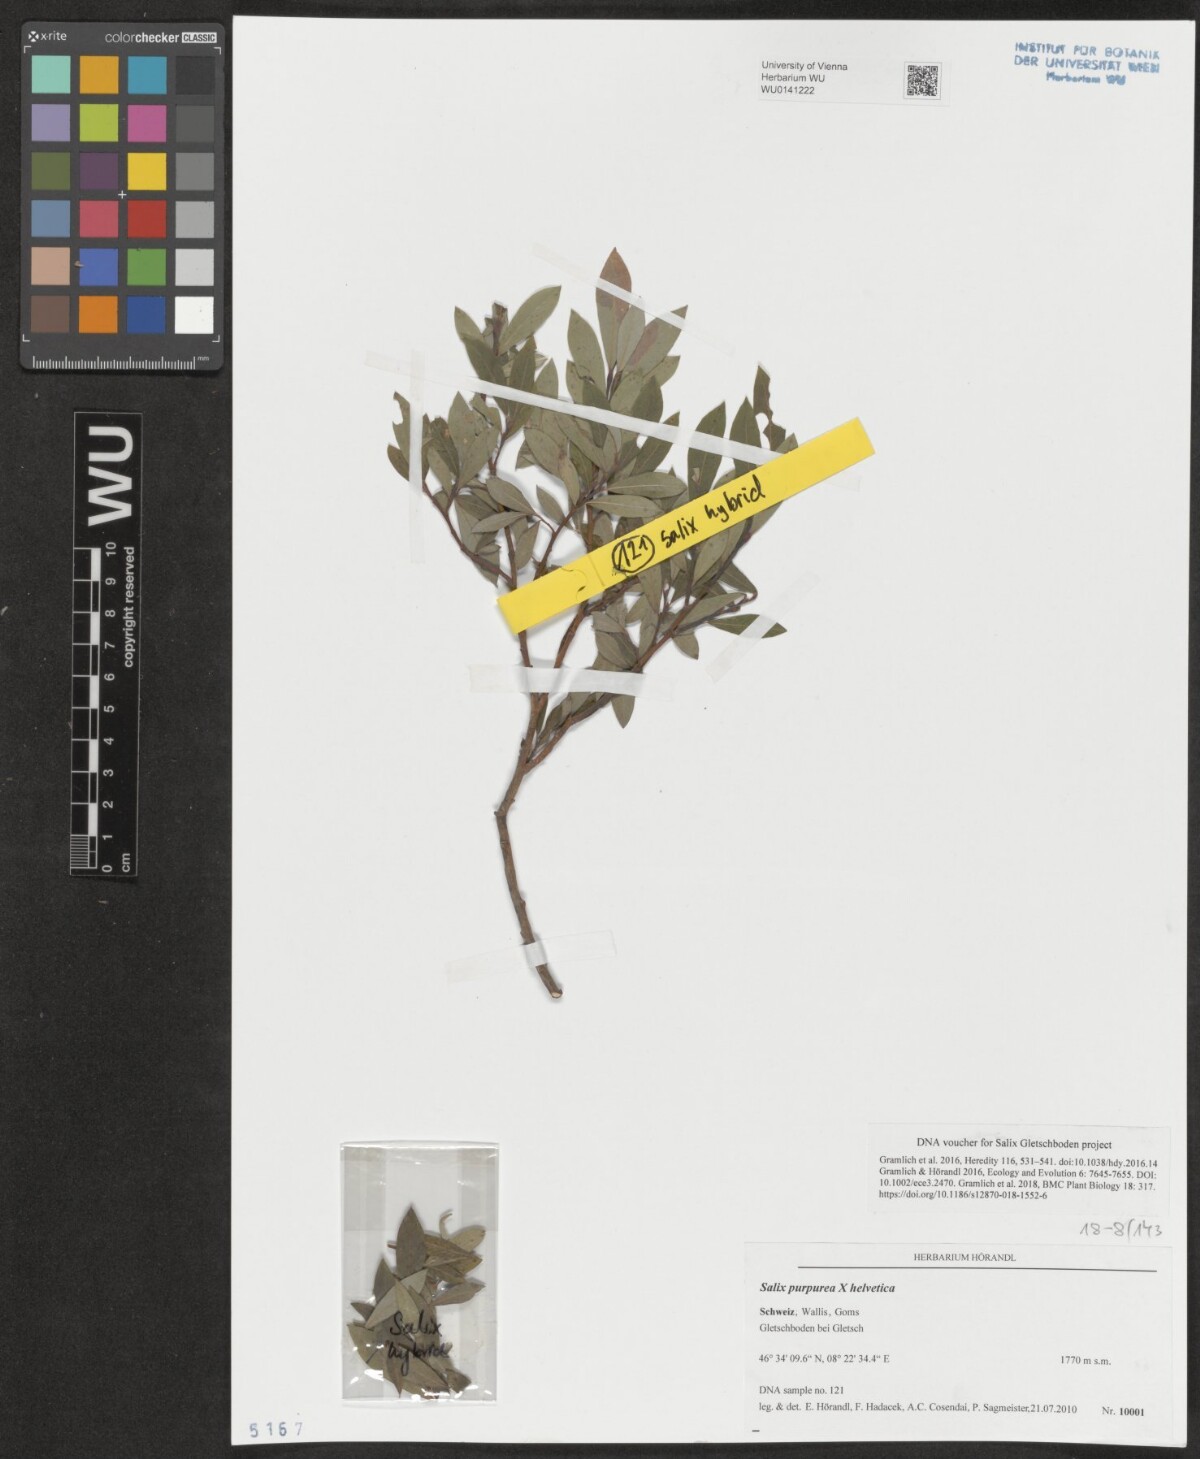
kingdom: Plantae
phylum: Tracheophyta
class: Magnoliopsida
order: Malpighiales
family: Salicaceae
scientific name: Salicaceae
